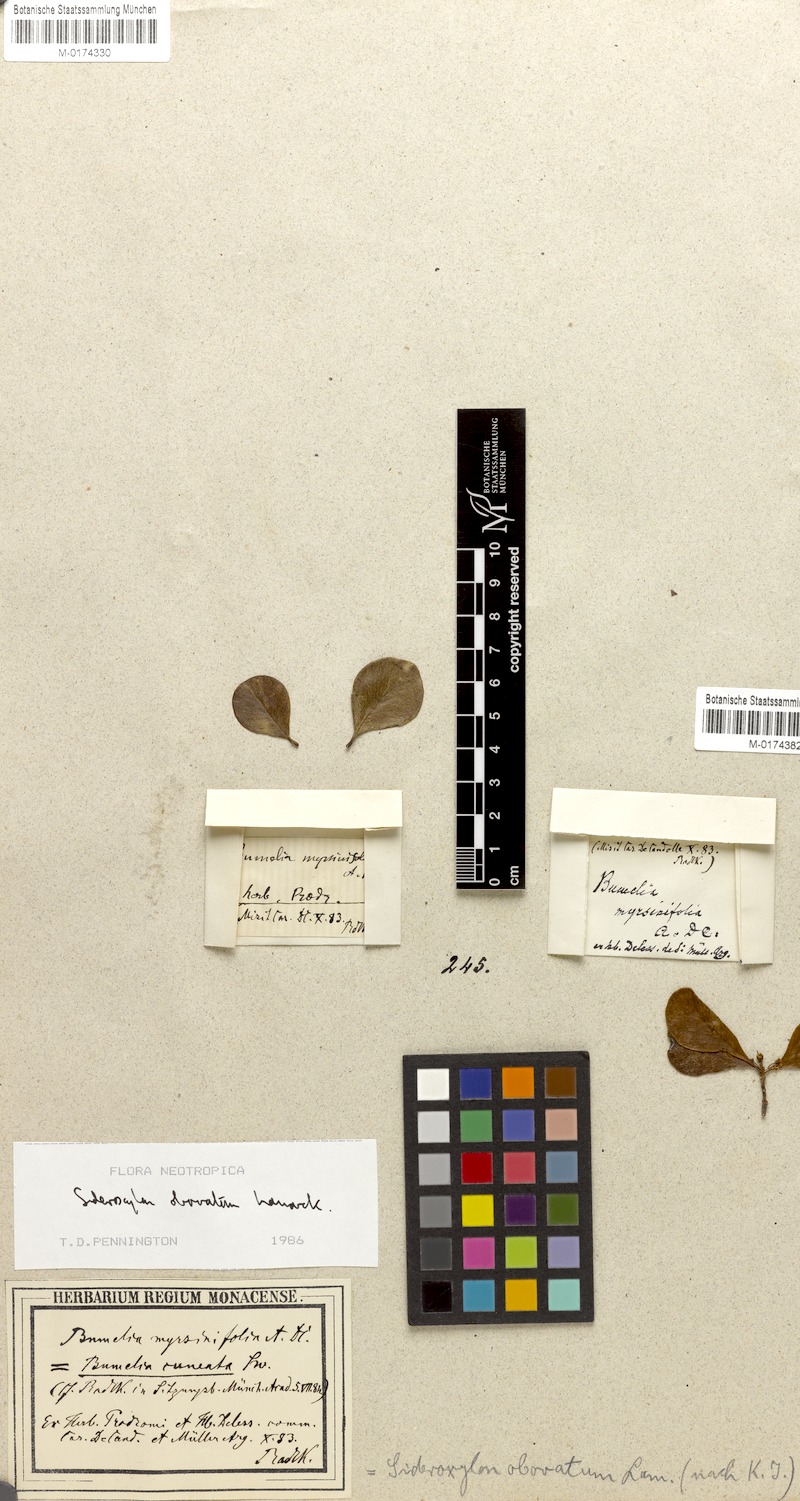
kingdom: Plantae
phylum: Tracheophyta
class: Magnoliopsida
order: Ericales
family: Sapotaceae
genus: Sideroxylon
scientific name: Sideroxylon obovatum
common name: Breakbill
